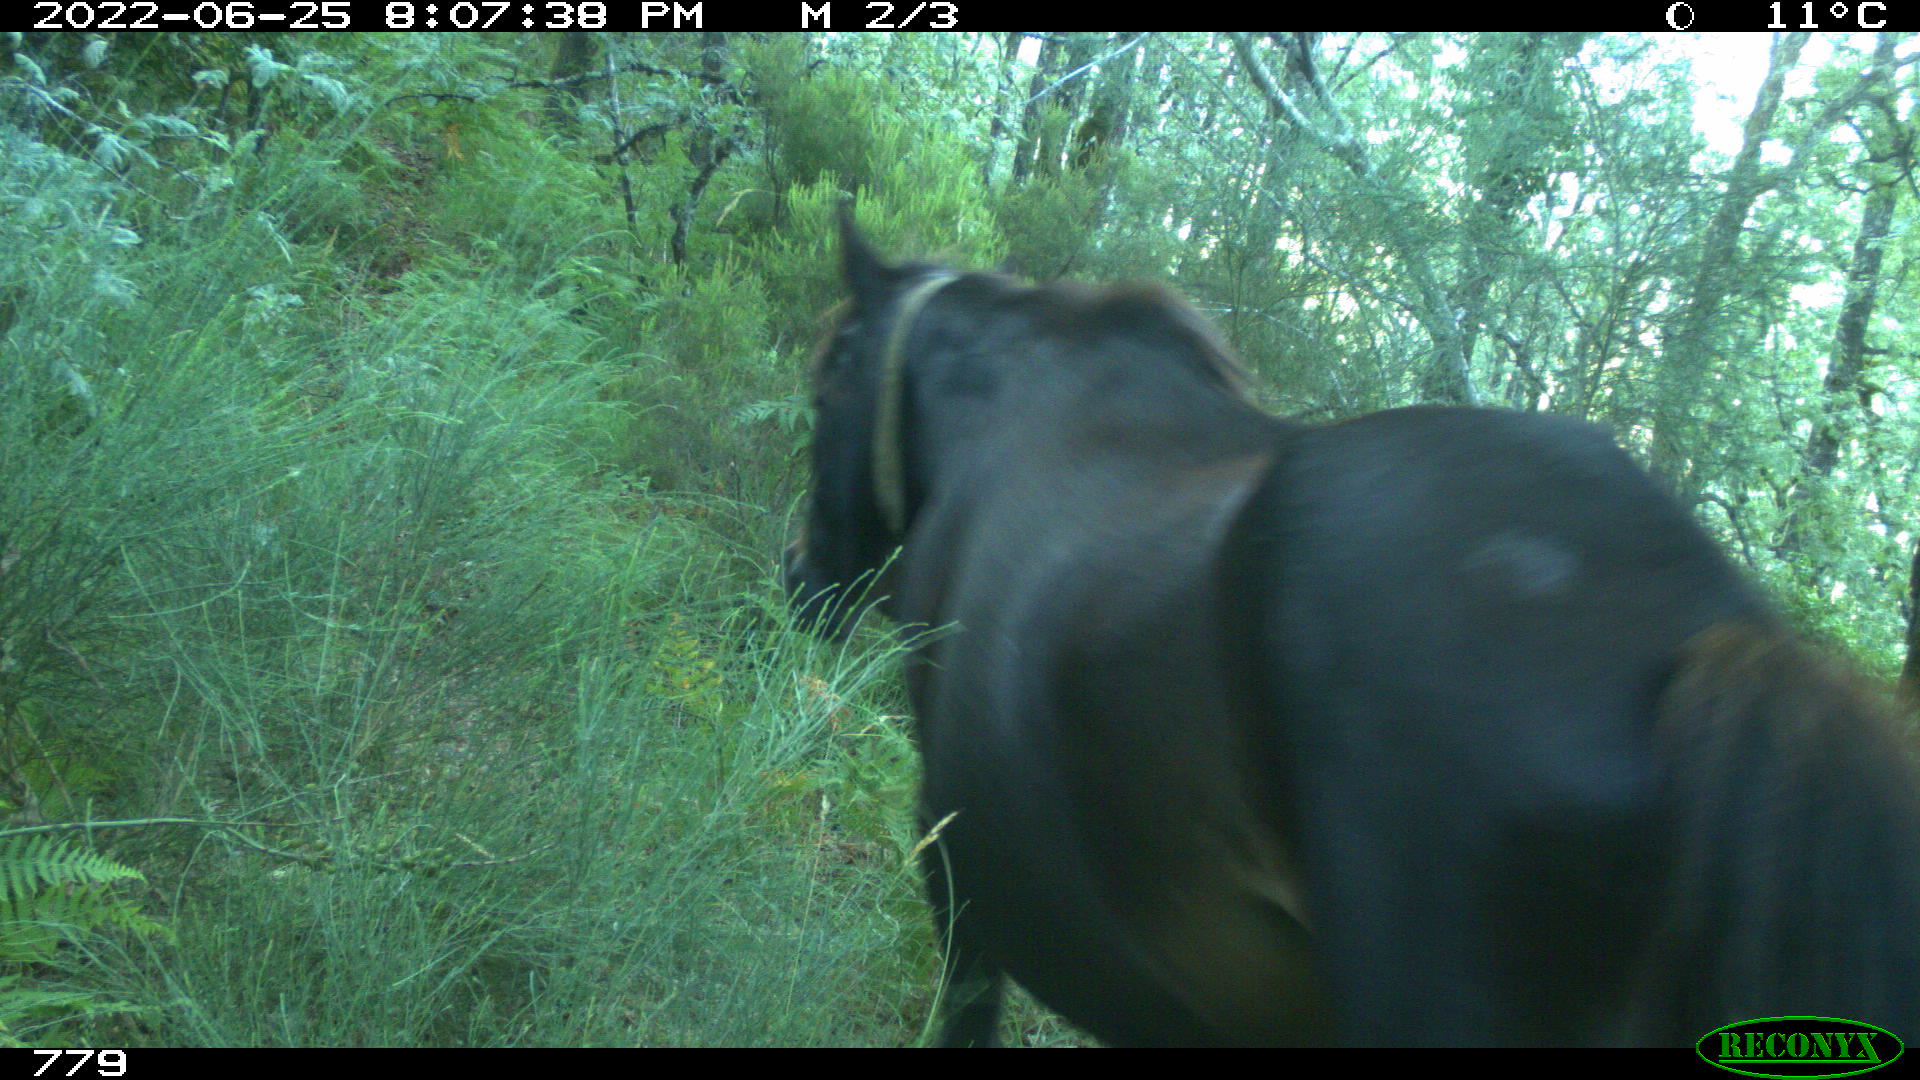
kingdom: Animalia
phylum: Chordata
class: Mammalia
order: Perissodactyla
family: Equidae
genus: Equus
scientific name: Equus caballus
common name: Horse
